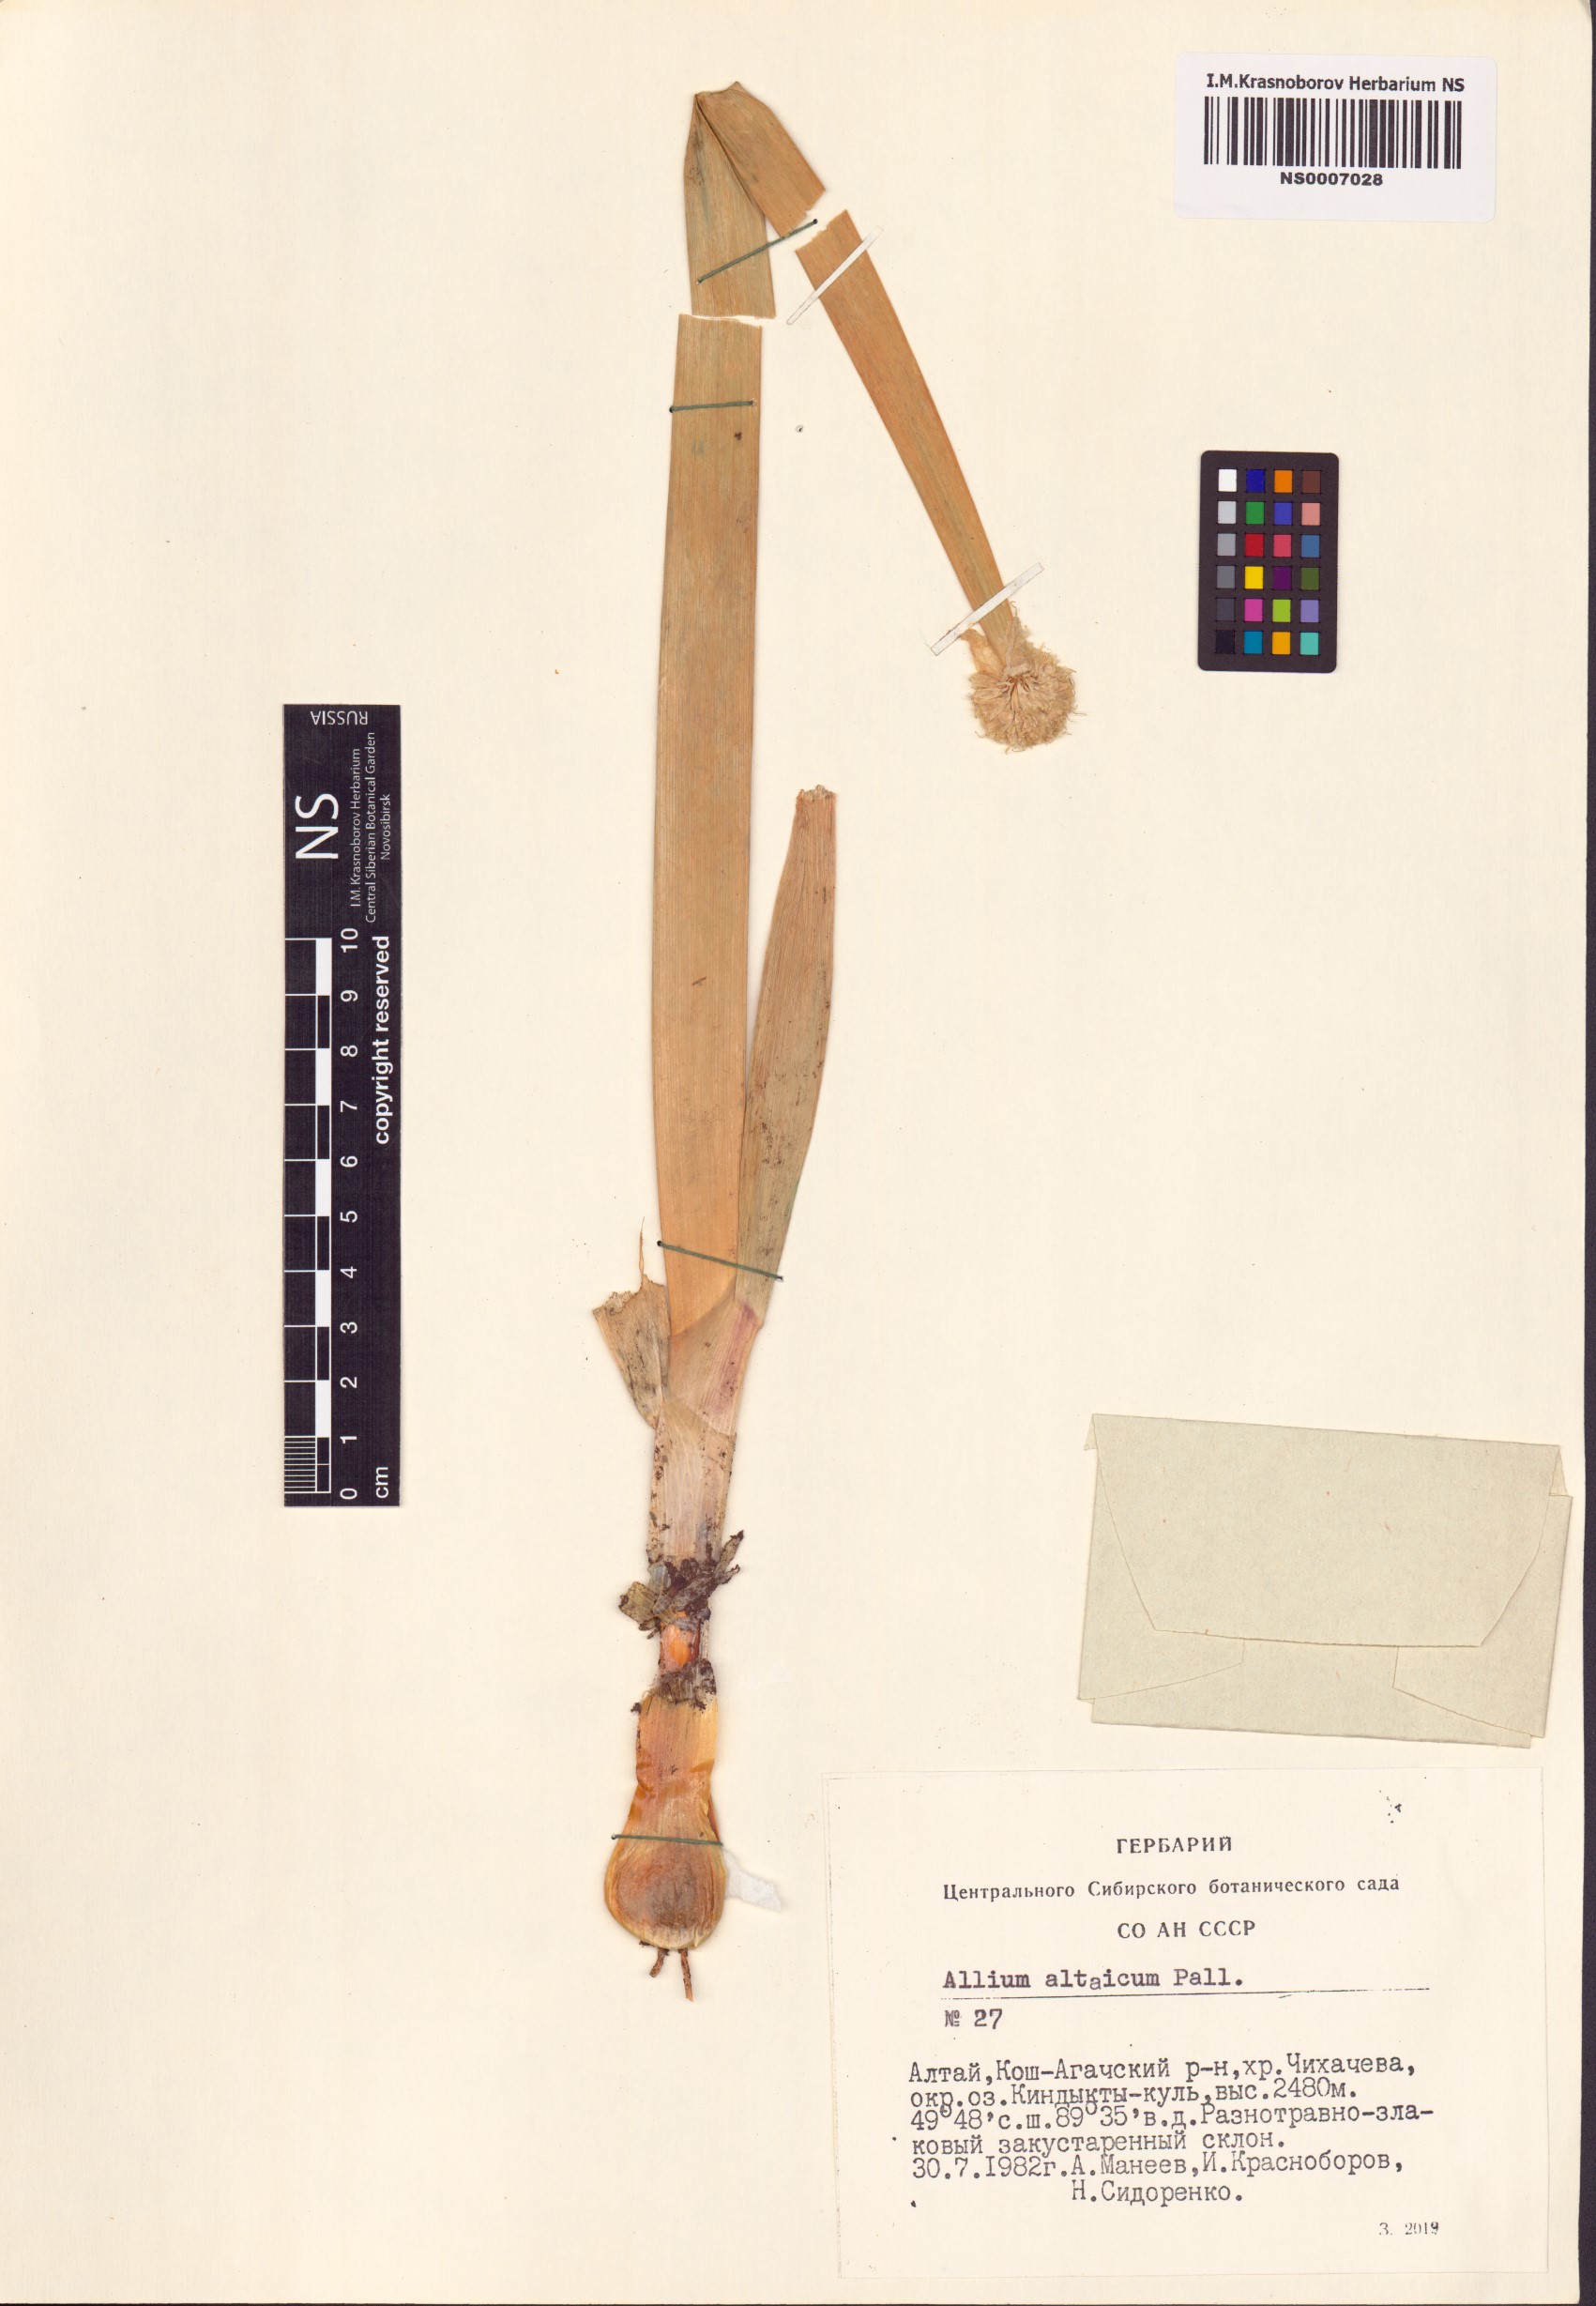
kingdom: Plantae
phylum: Tracheophyta
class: Liliopsida
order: Asparagales
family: Amaryllidaceae
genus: Allium
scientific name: Allium altaicum
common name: Altai onion
